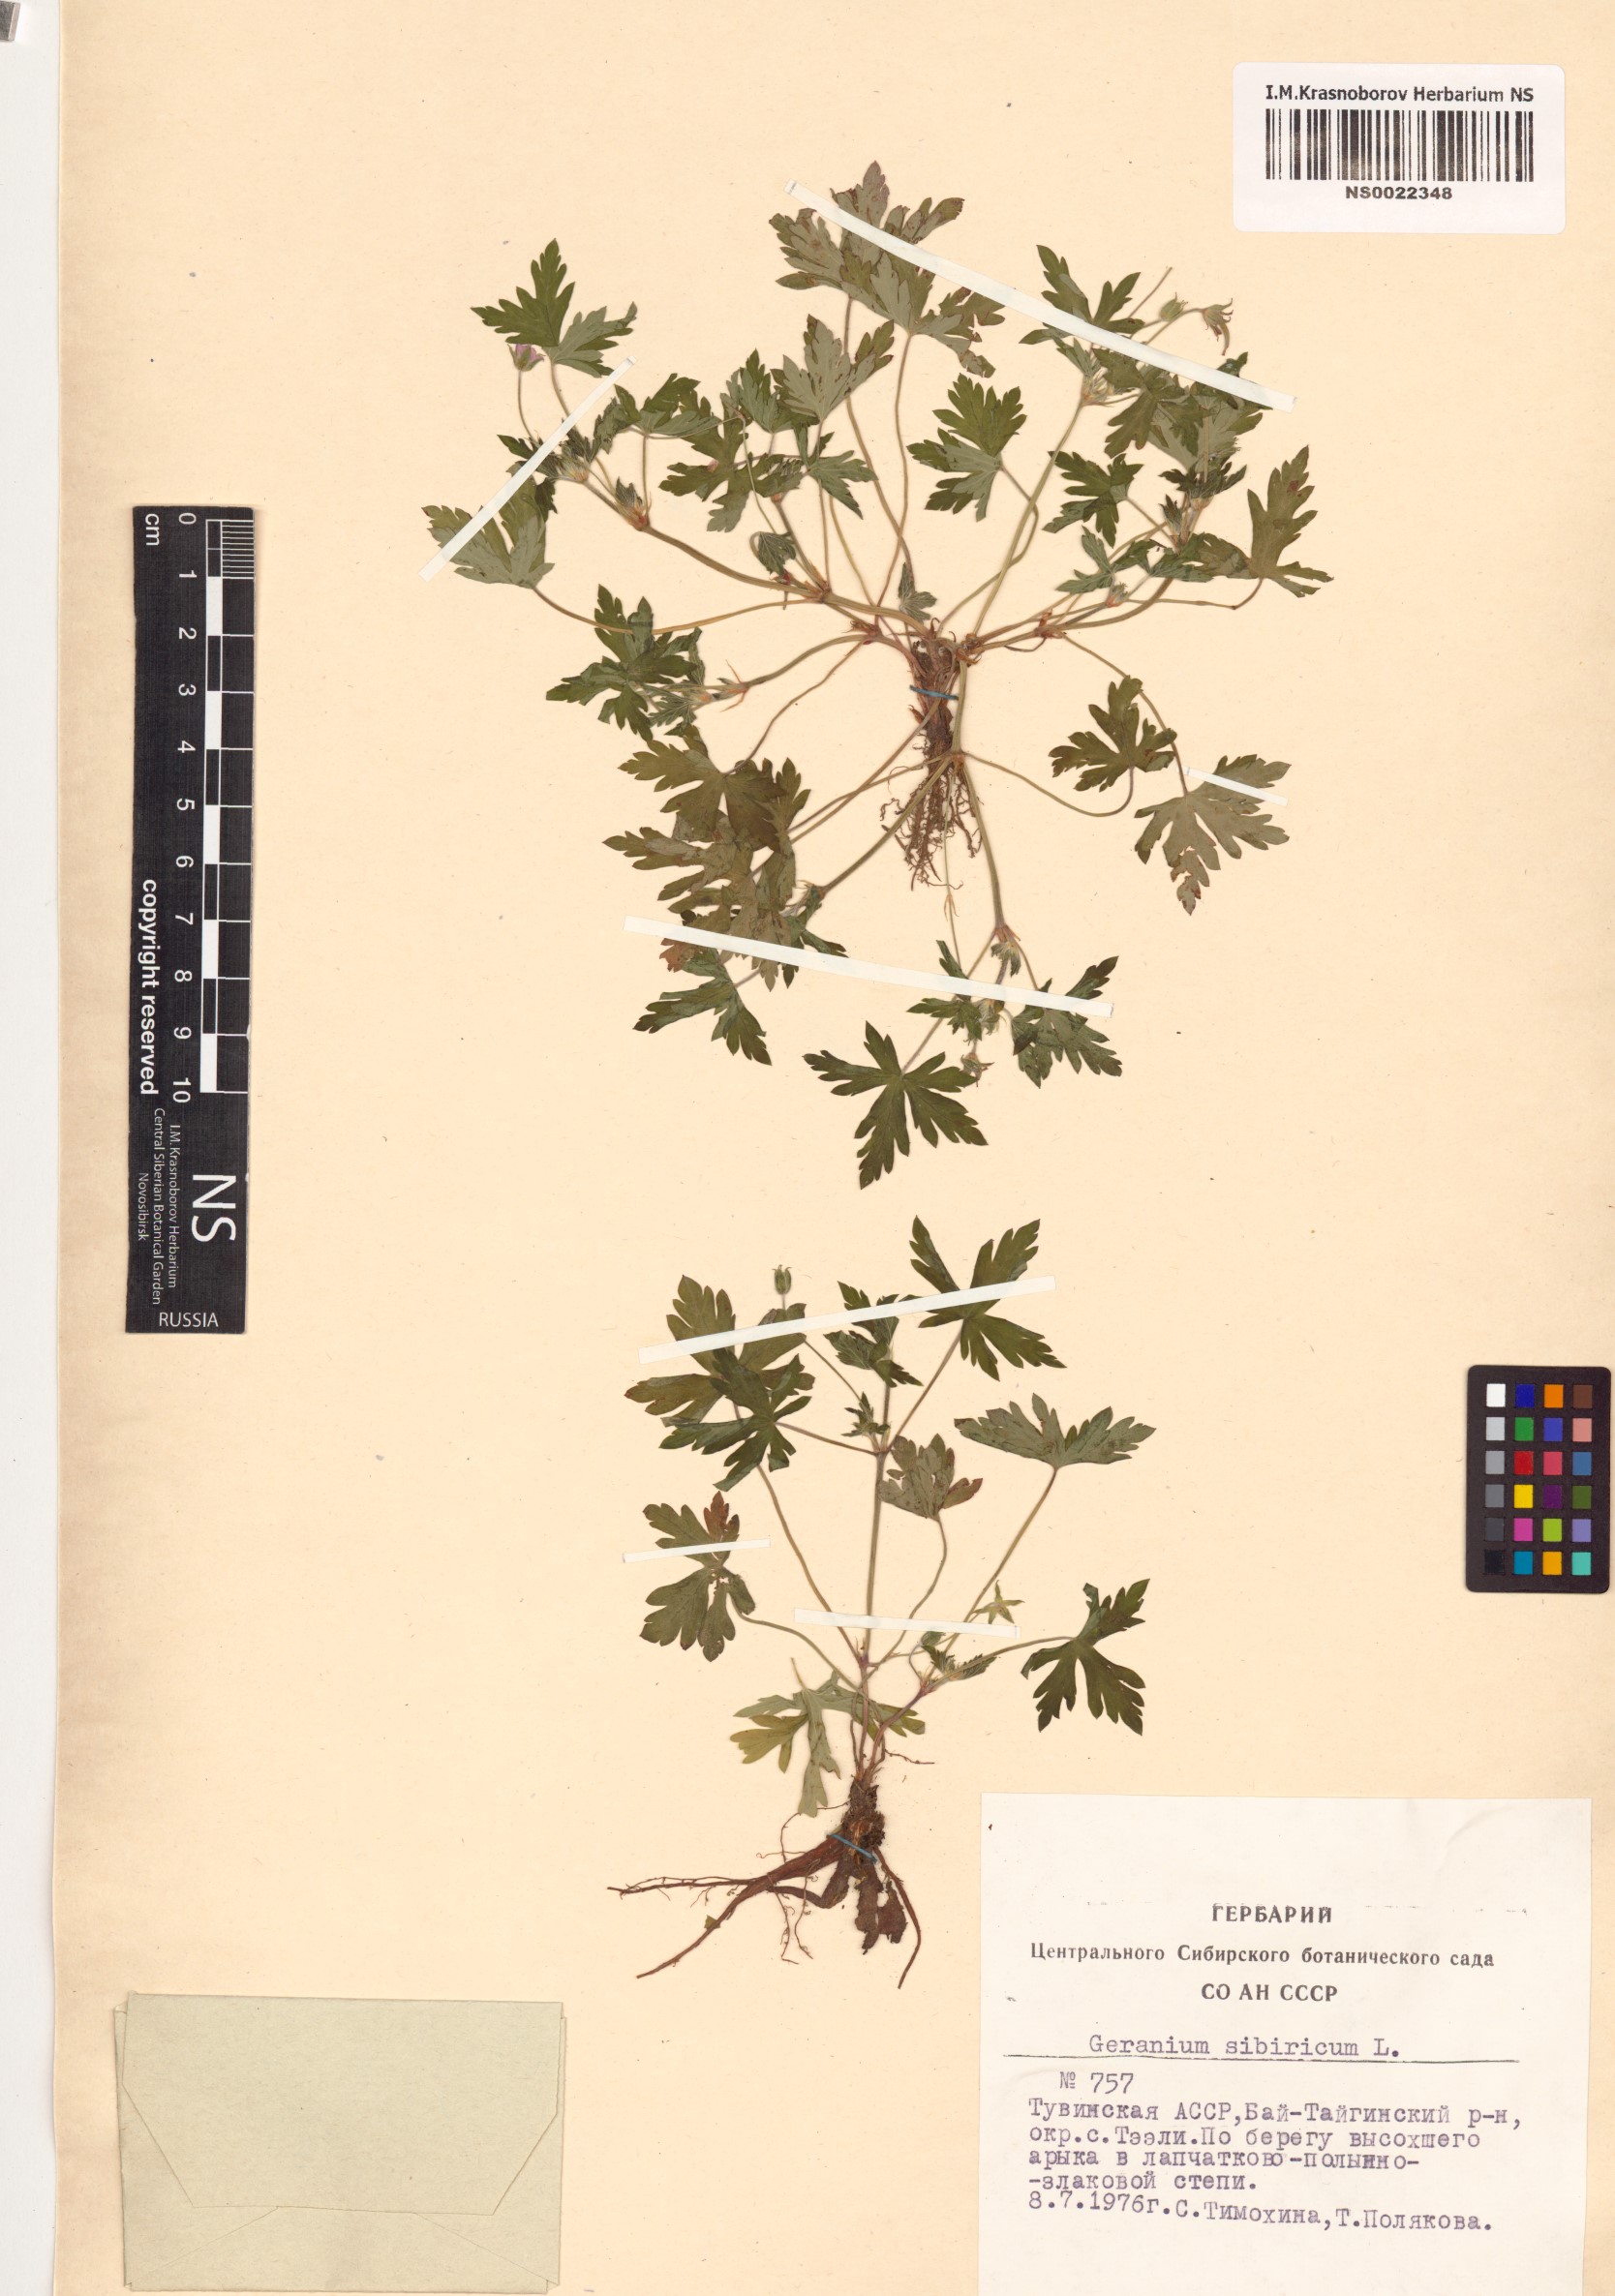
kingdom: Plantae
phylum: Tracheophyta
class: Magnoliopsida
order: Geraniales
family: Geraniaceae
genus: Geranium
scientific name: Geranium sibiricum
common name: Siberian crane's-bill
